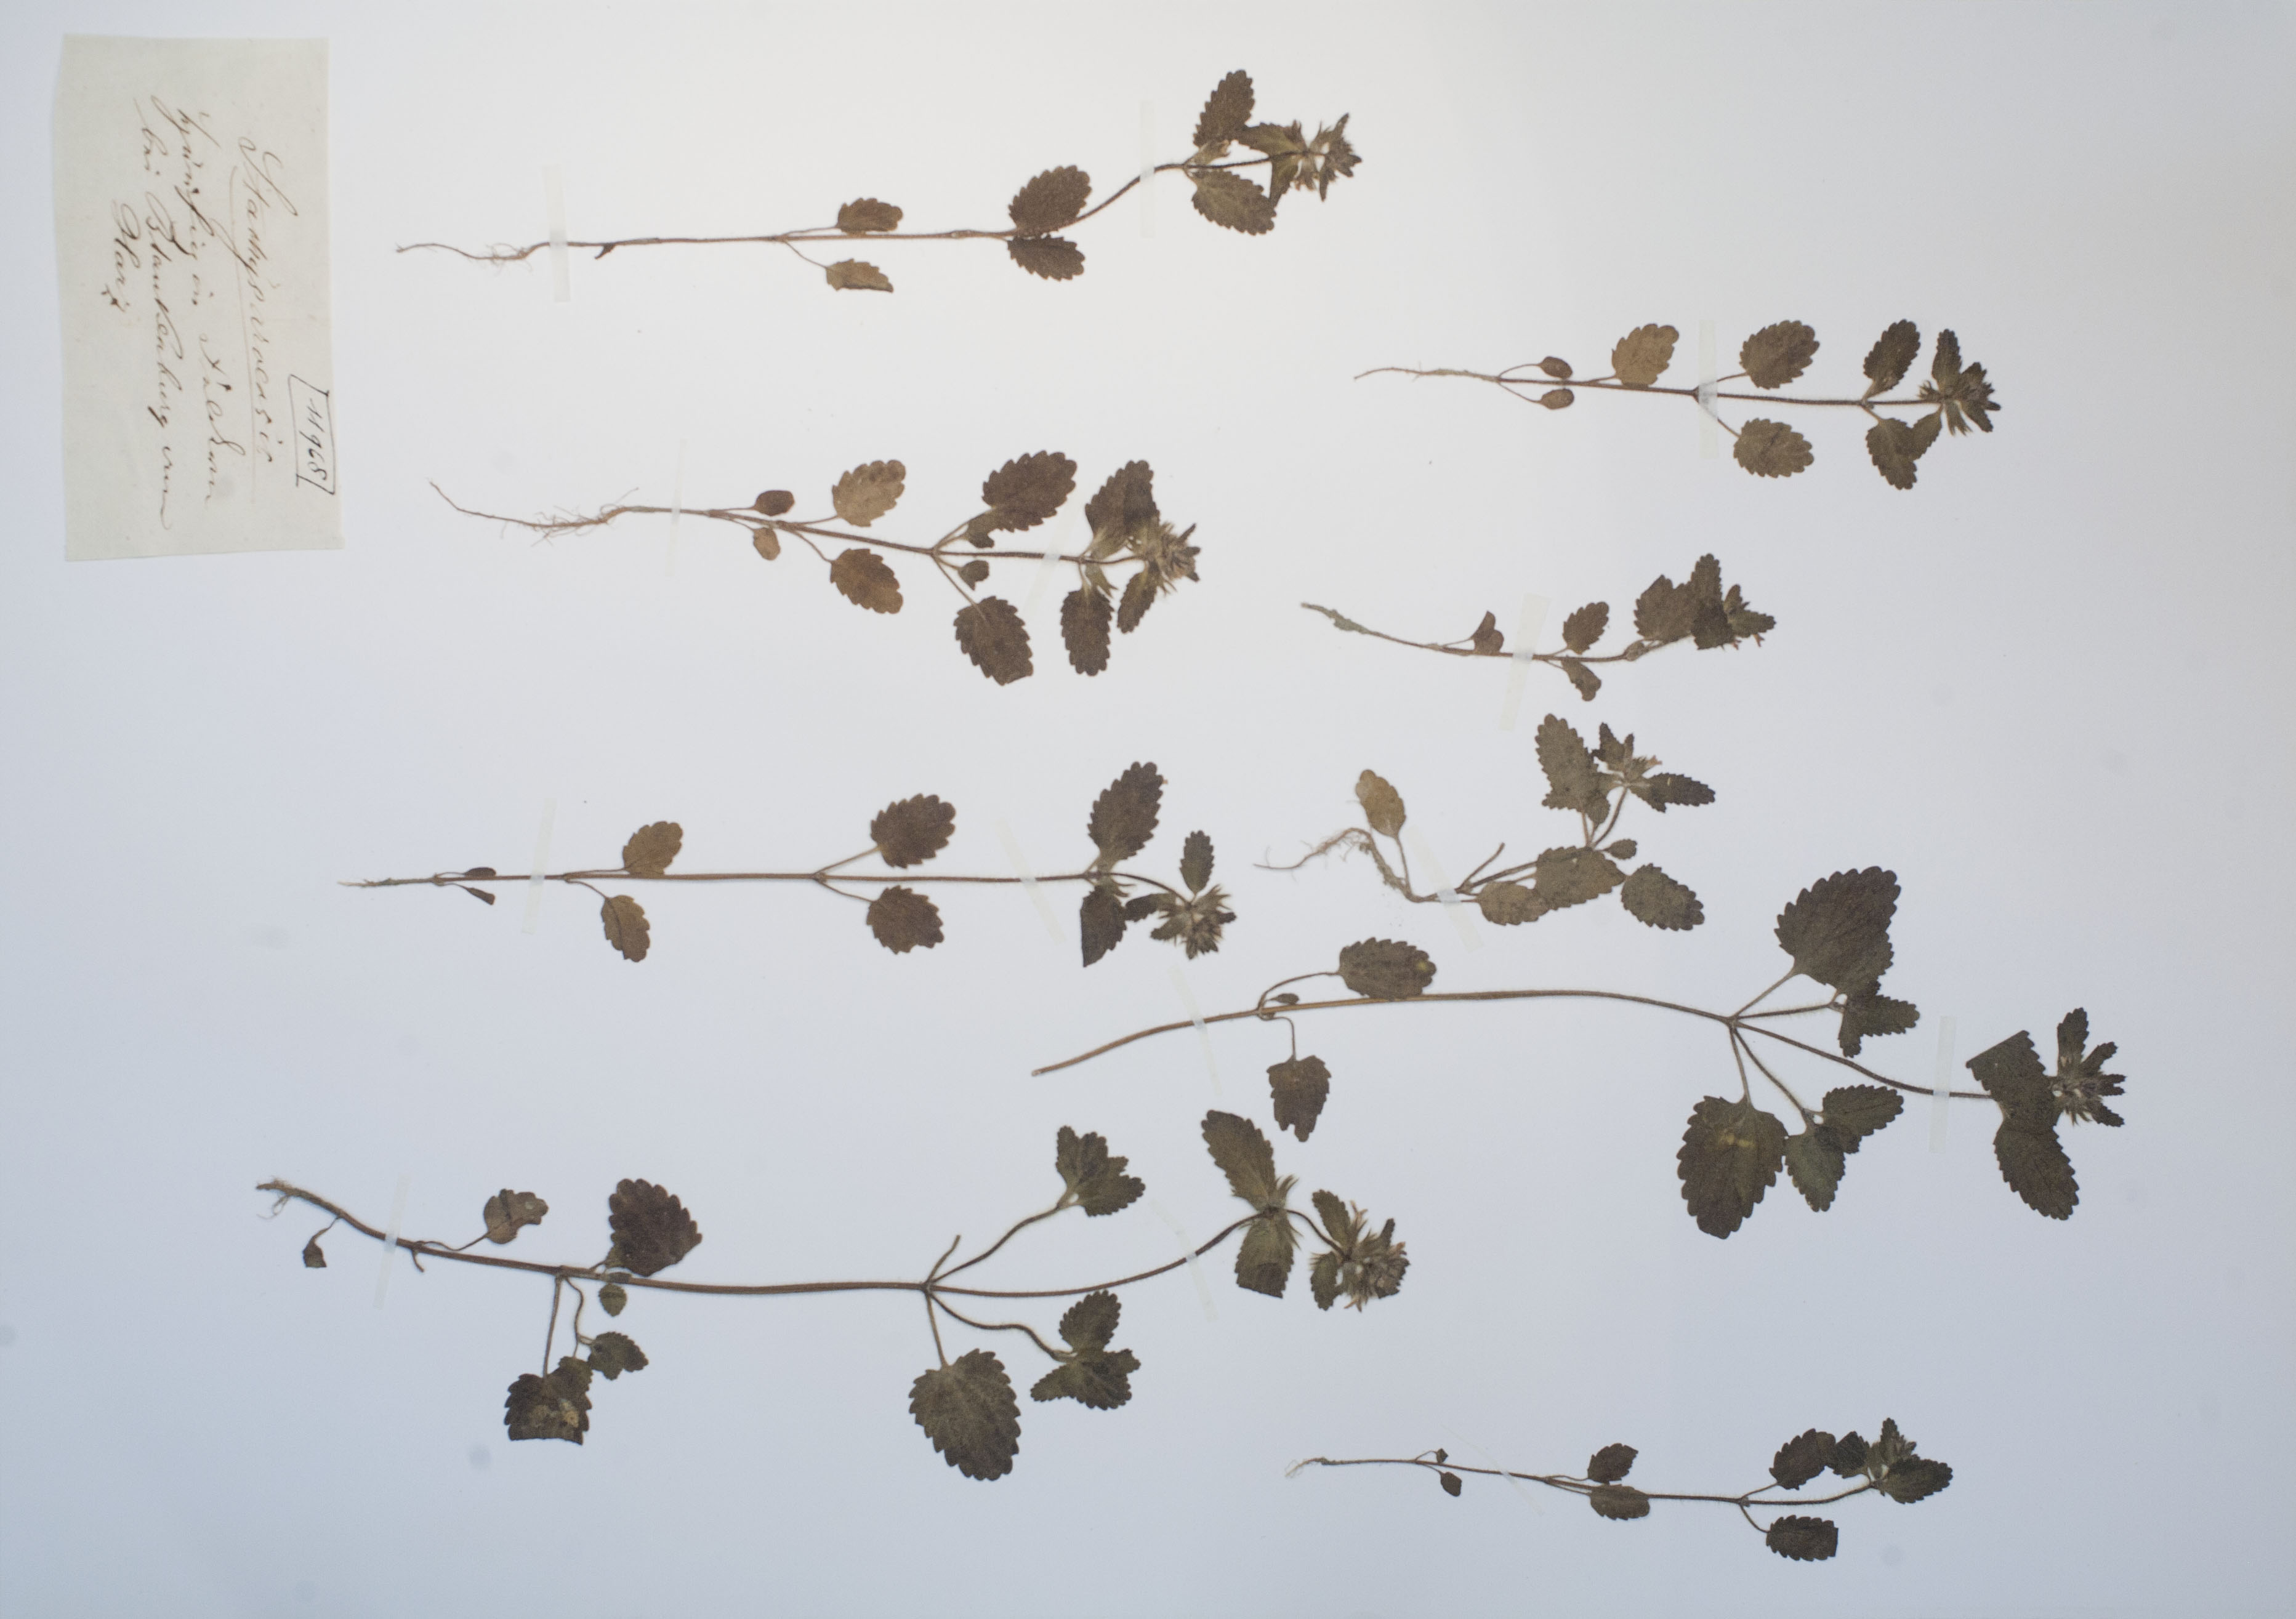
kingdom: Plantae
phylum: Tracheophyta
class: Magnoliopsida
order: Lamiales
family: Lamiaceae
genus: Stachys
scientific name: Stachys arvensis
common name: Field woundwort
